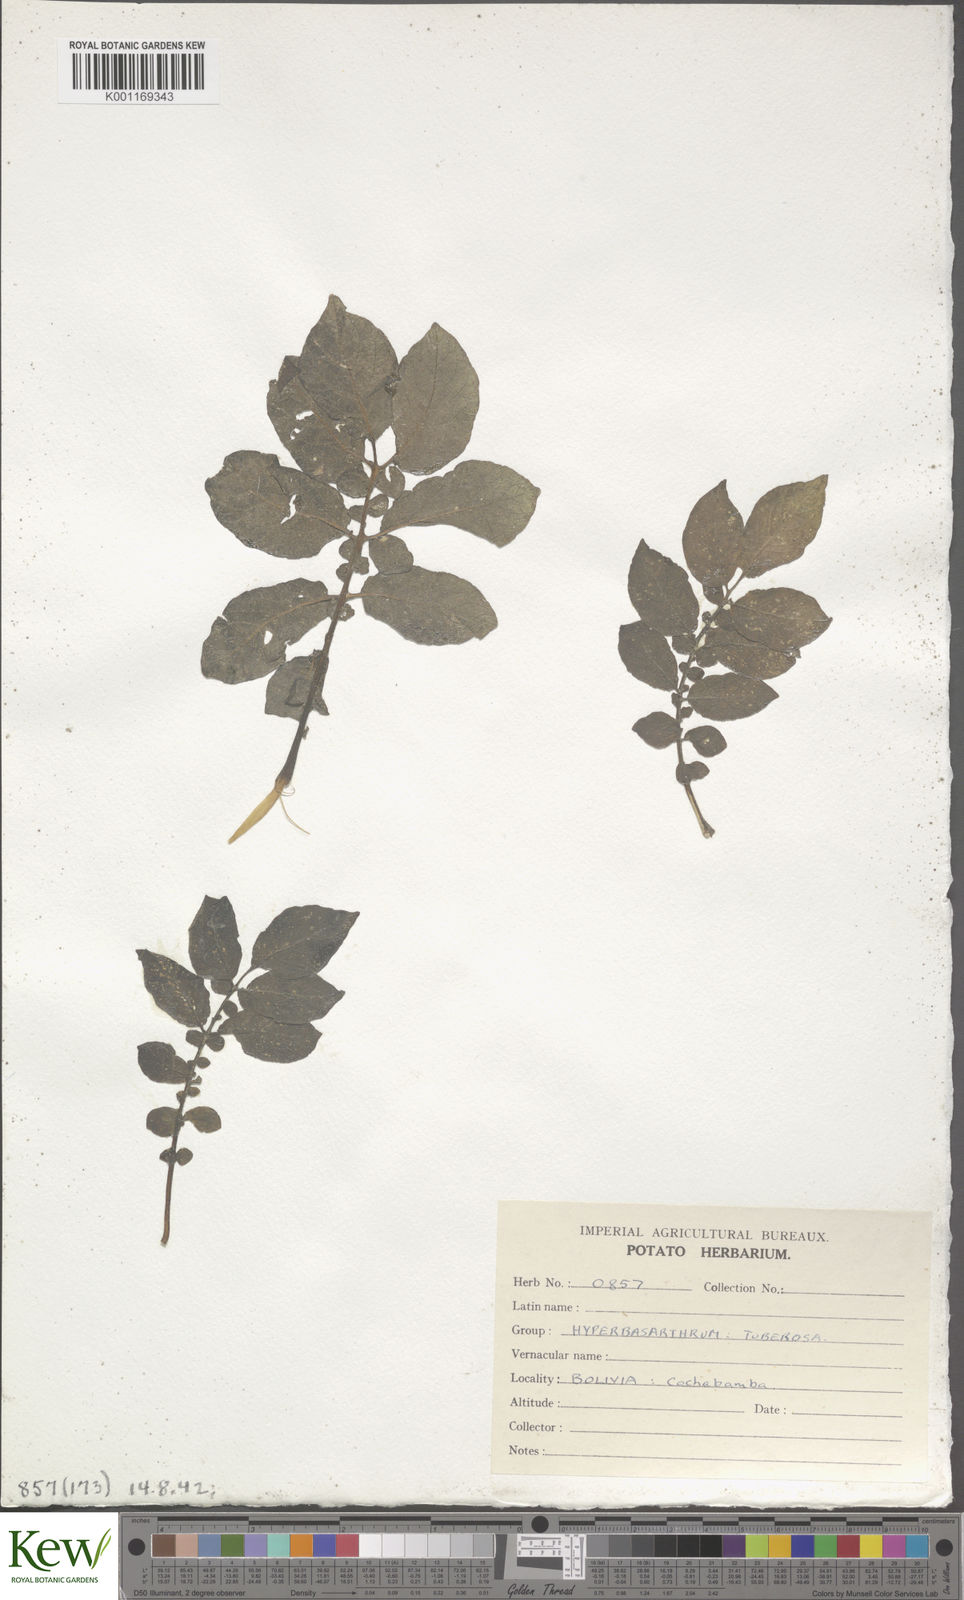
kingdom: Plantae
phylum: Tracheophyta
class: Magnoliopsida
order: Solanales
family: Solanaceae
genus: Solanum
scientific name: Solanum chaucha
